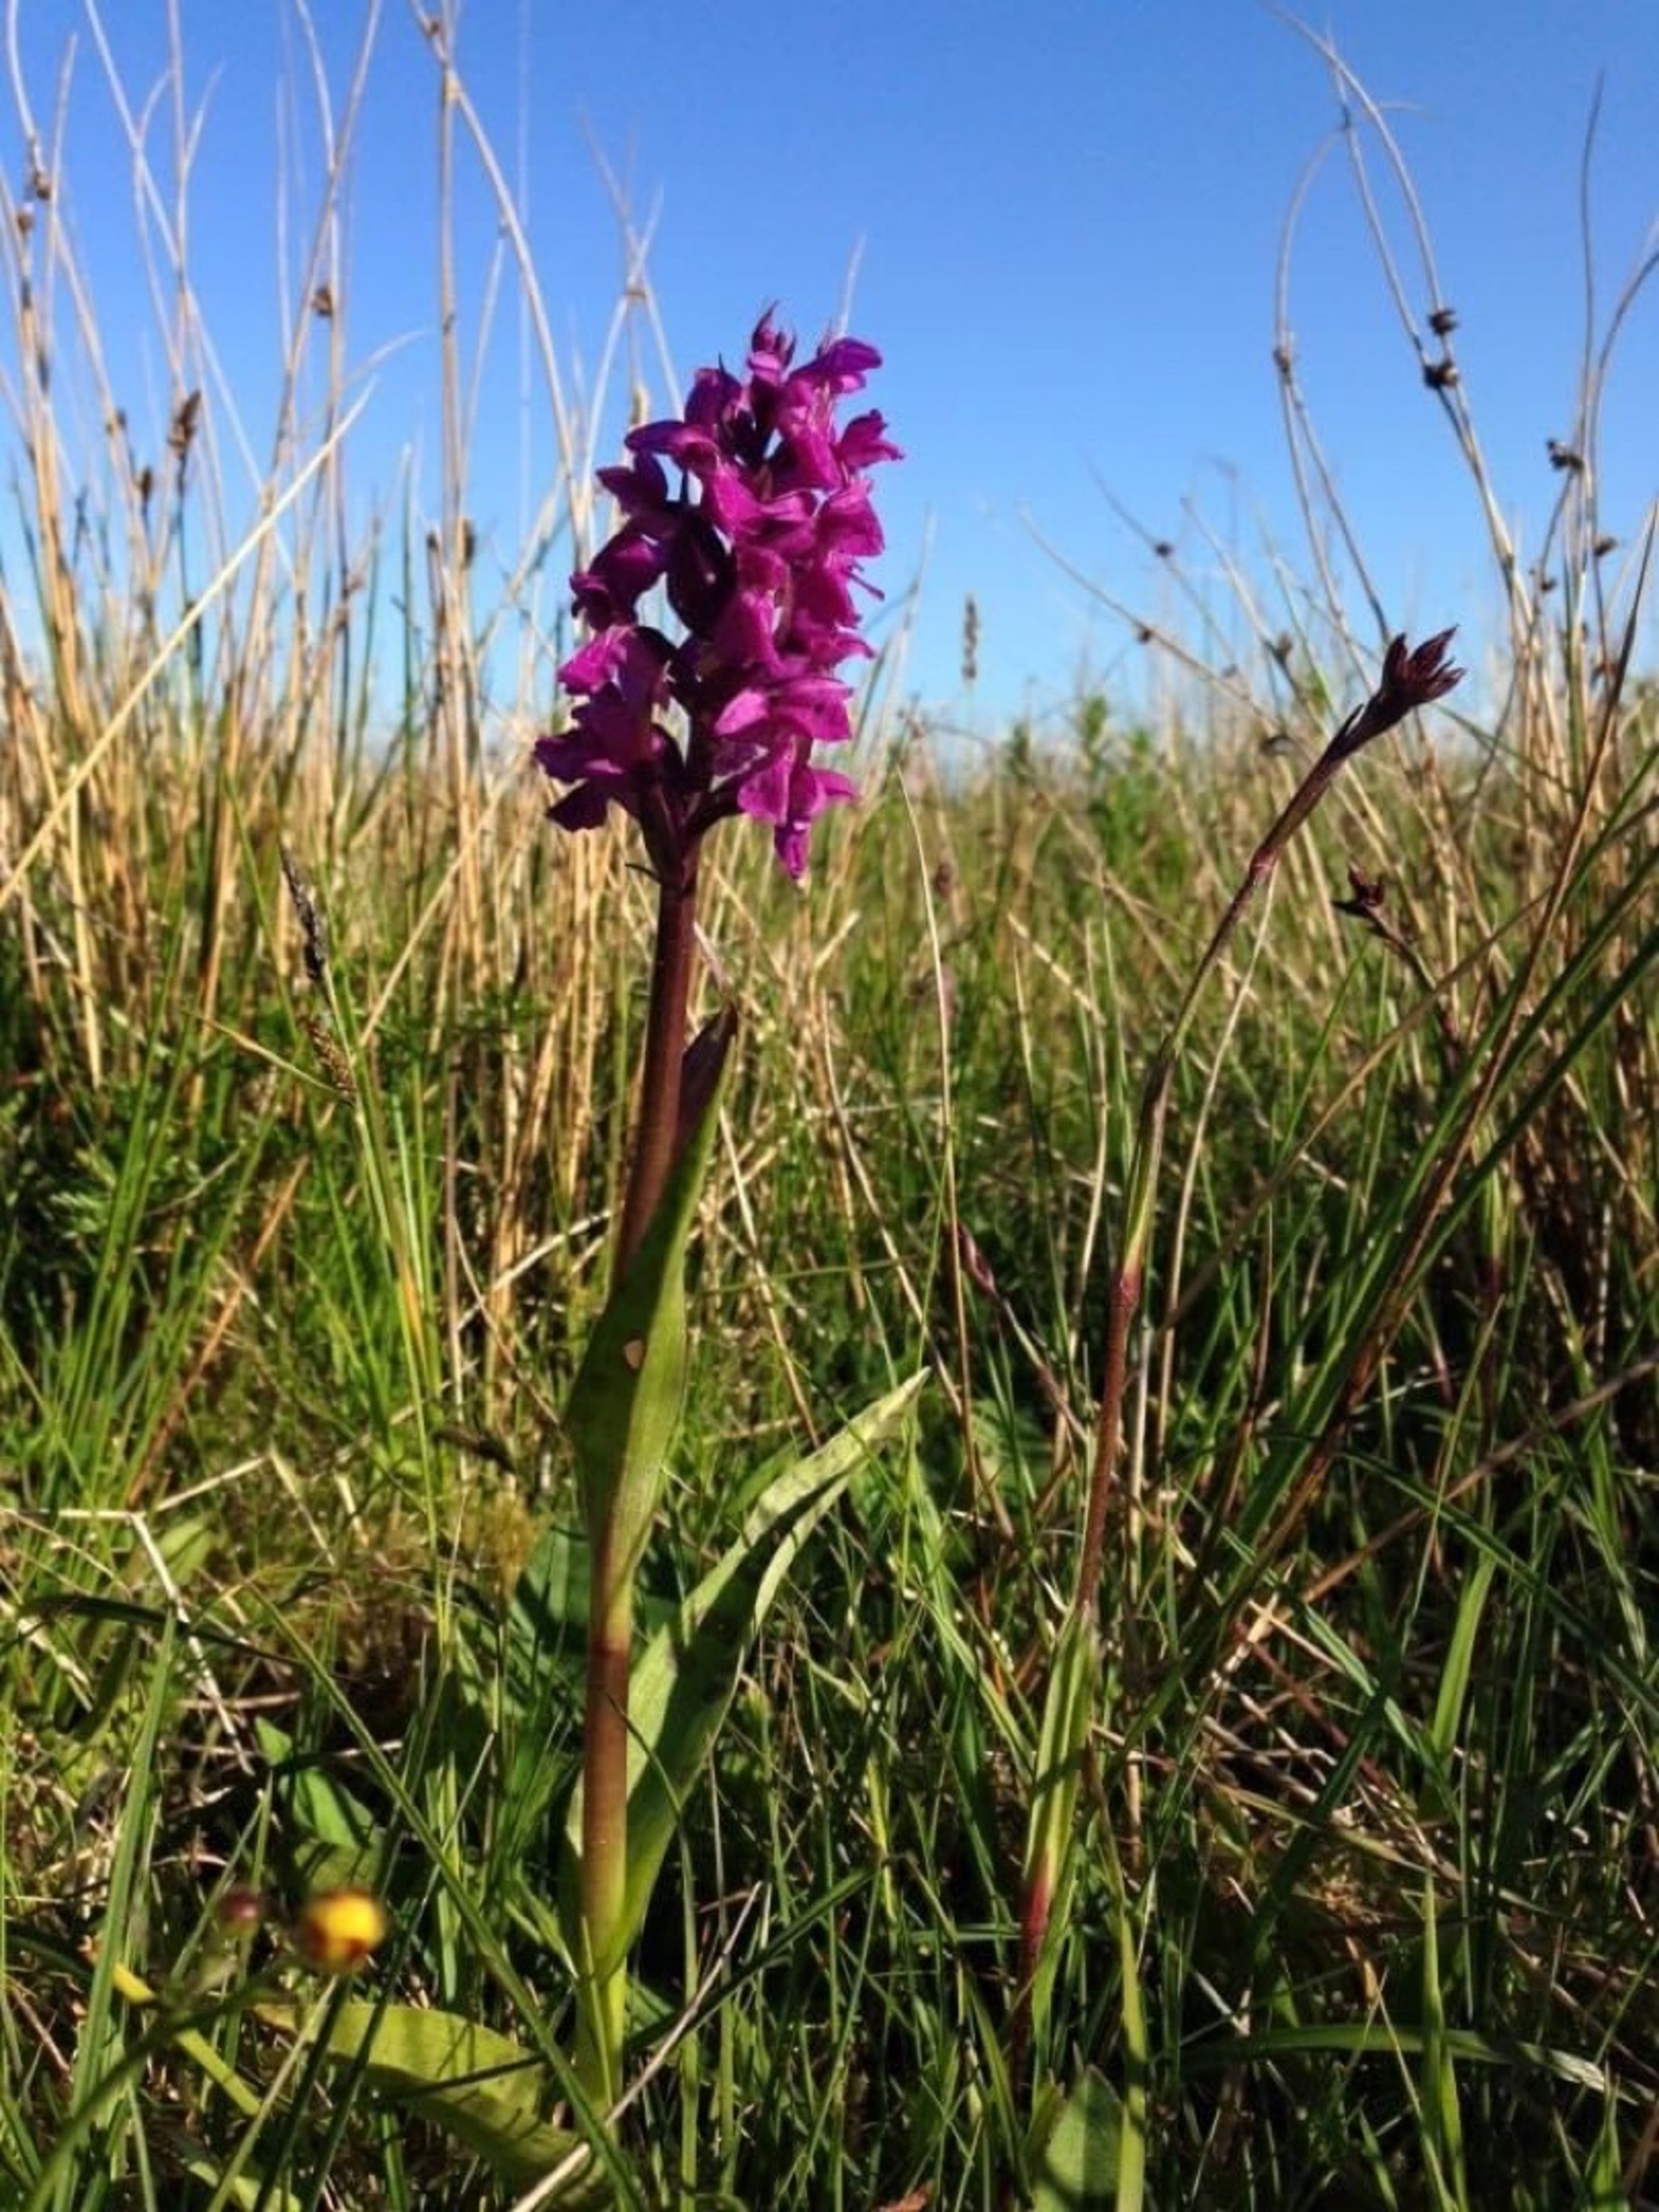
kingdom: Plantae
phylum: Tracheophyta
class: Liliopsida
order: Asparagales
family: Orchidaceae
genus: Dactylorhiza
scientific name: Dactylorhiza majalis
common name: Maj-gøgeurt (underart)
